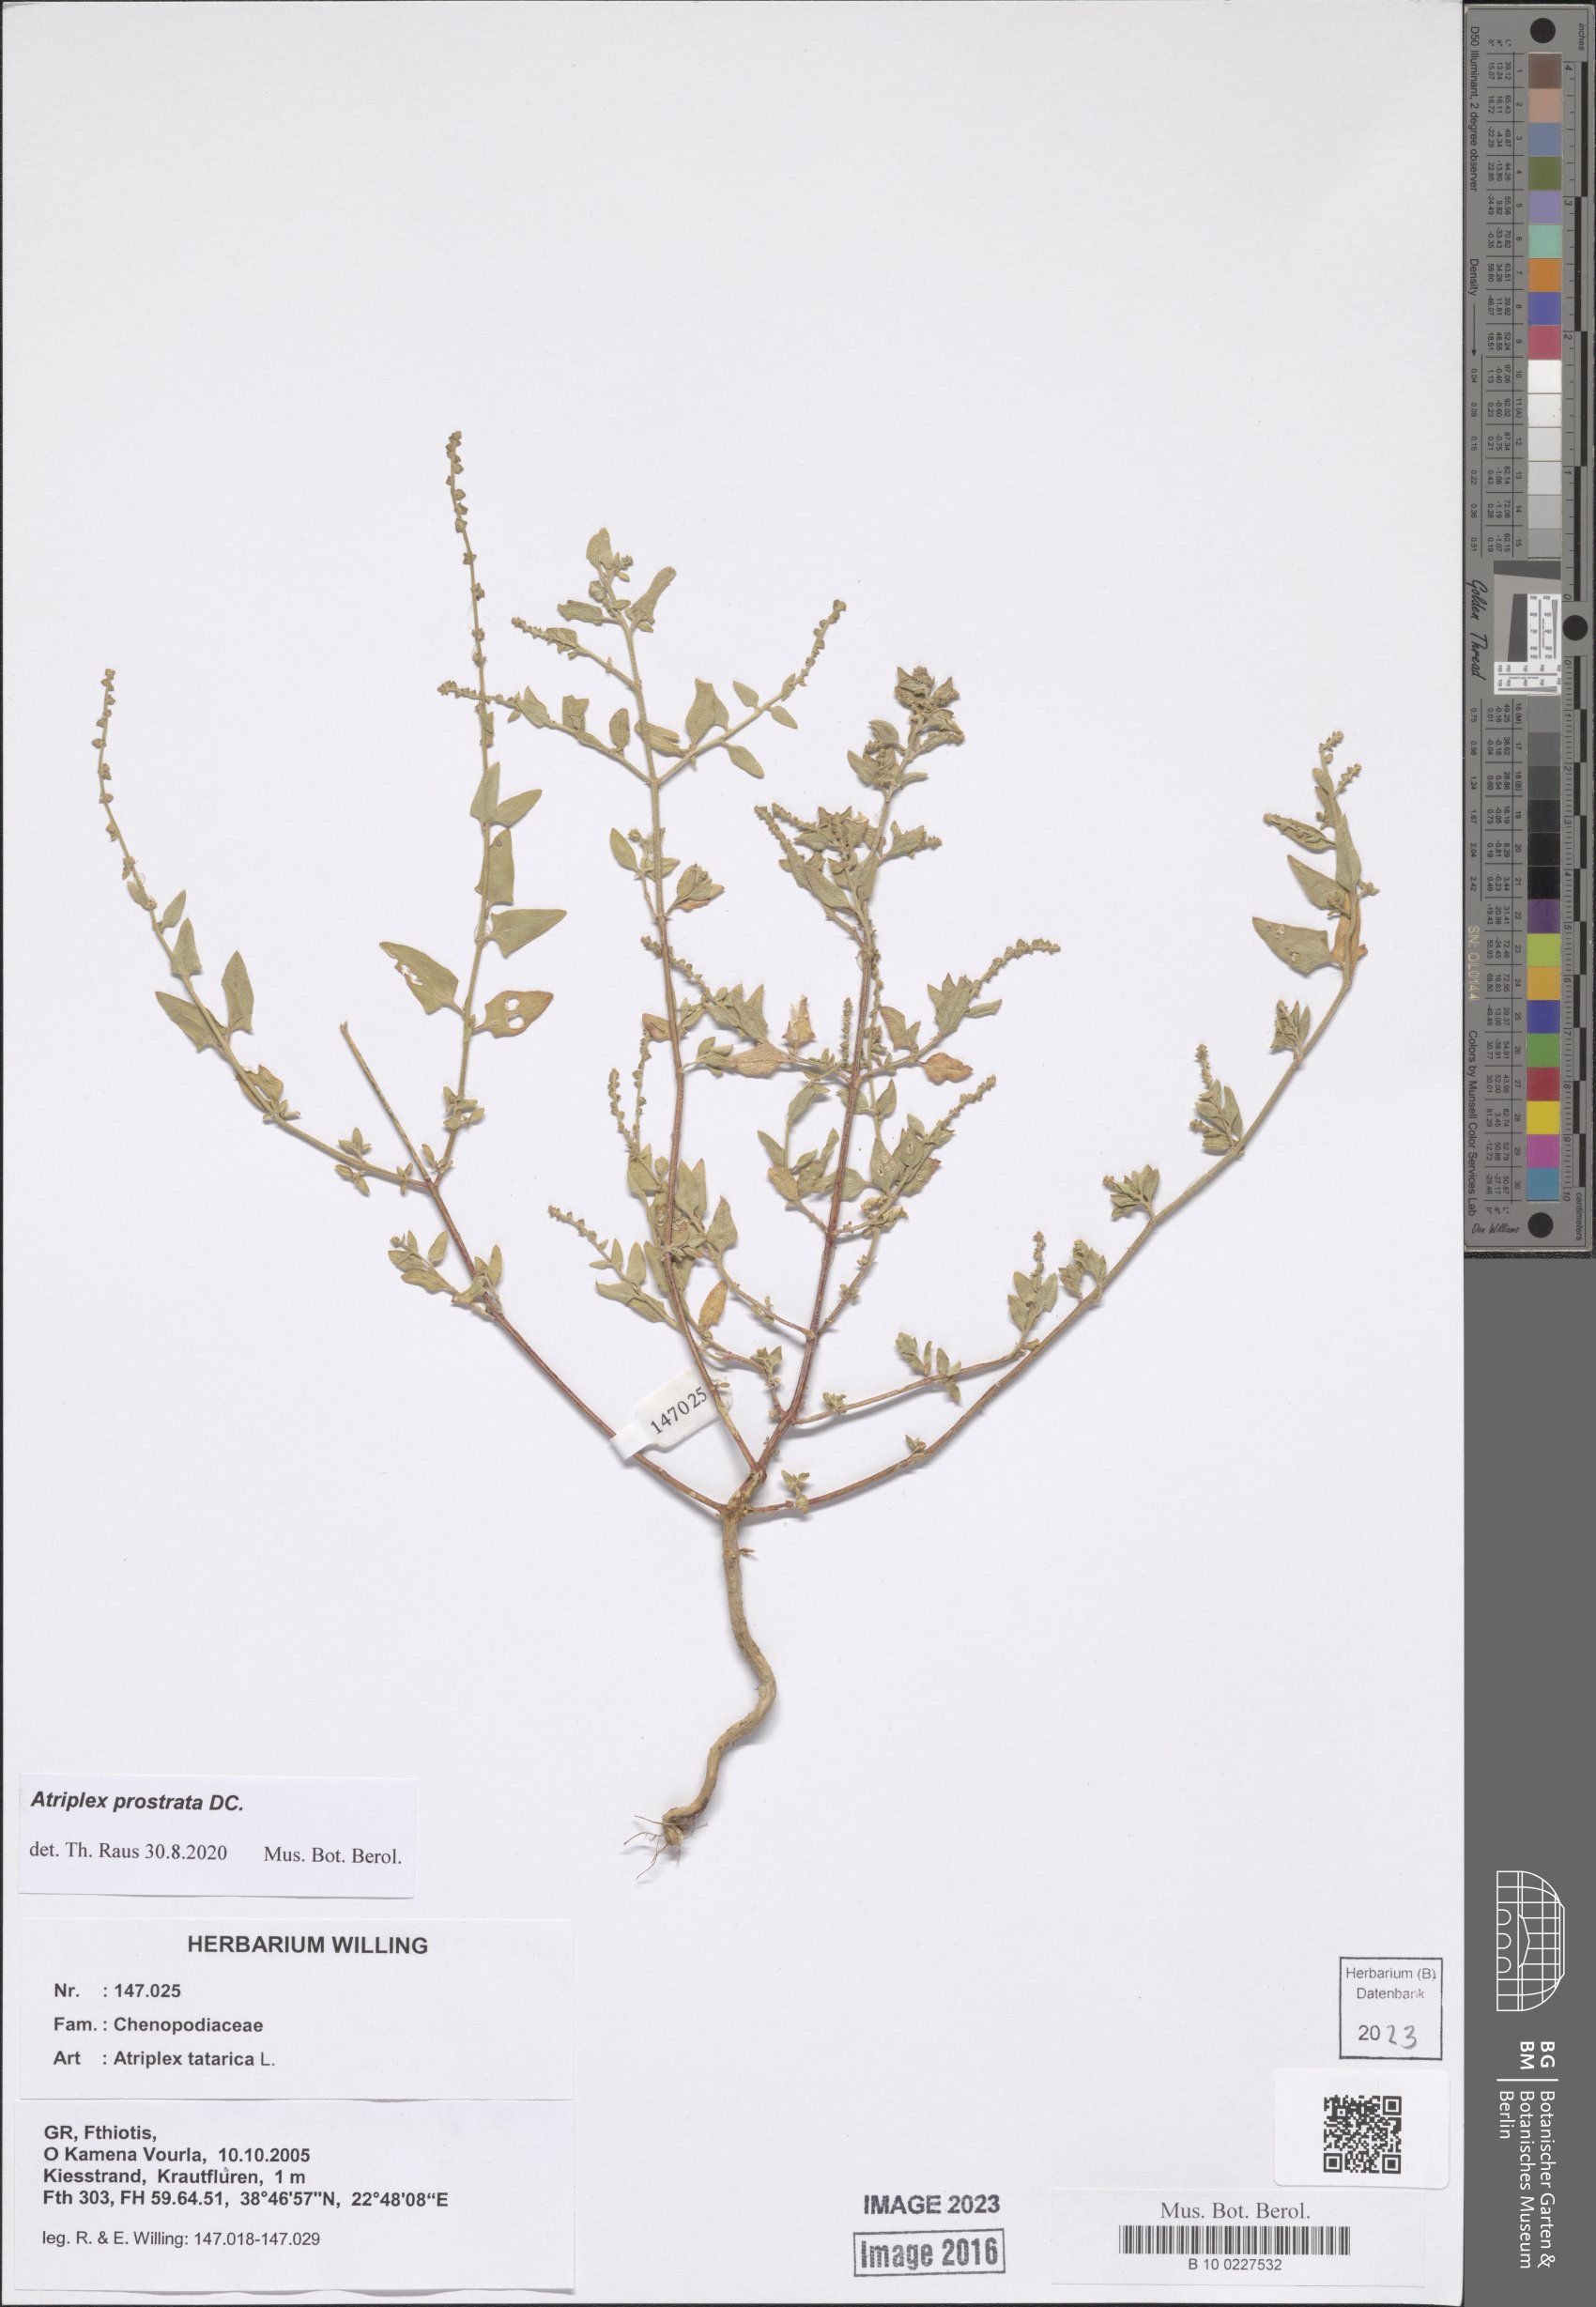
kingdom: Plantae
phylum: Tracheophyta
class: Magnoliopsida
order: Caryophyllales
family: Amaranthaceae
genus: Atriplex
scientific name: Atriplex prostrata
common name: Spear-leaved orache
